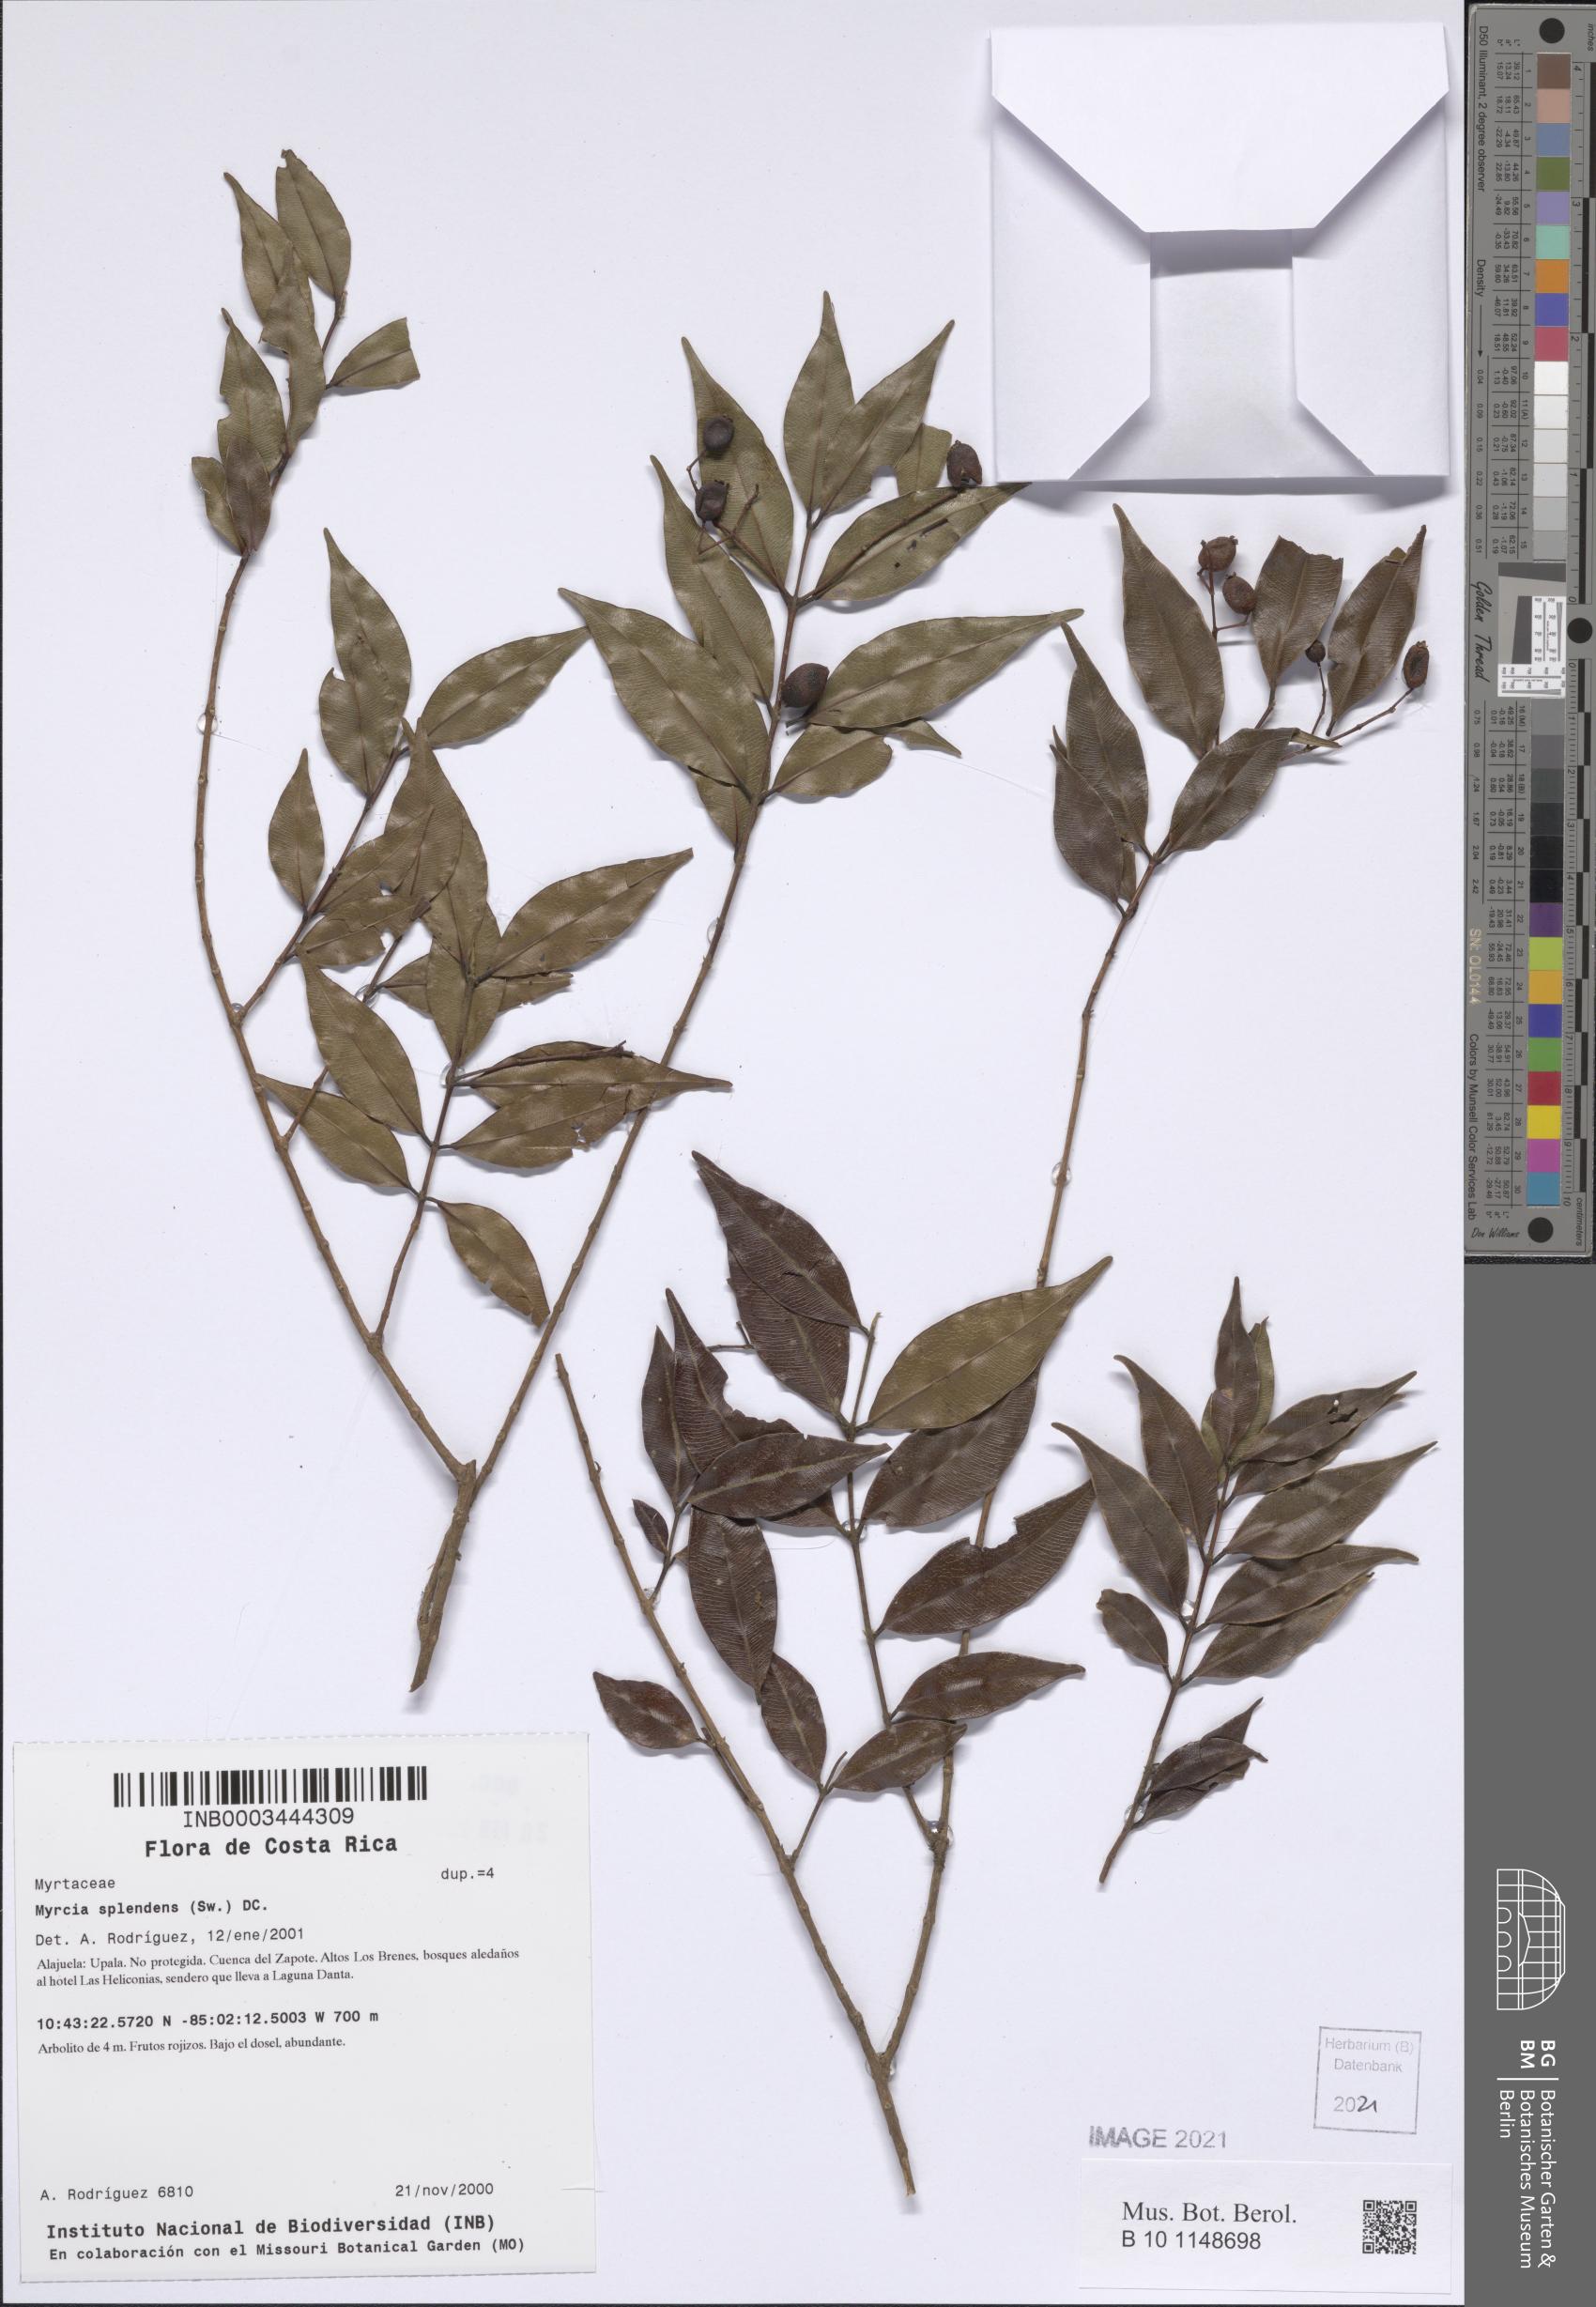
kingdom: Plantae
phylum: Tracheophyta
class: Magnoliopsida
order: Myrtales
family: Myrtaceae
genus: Myrcia
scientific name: Myrcia splendens
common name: Surinam cherry
